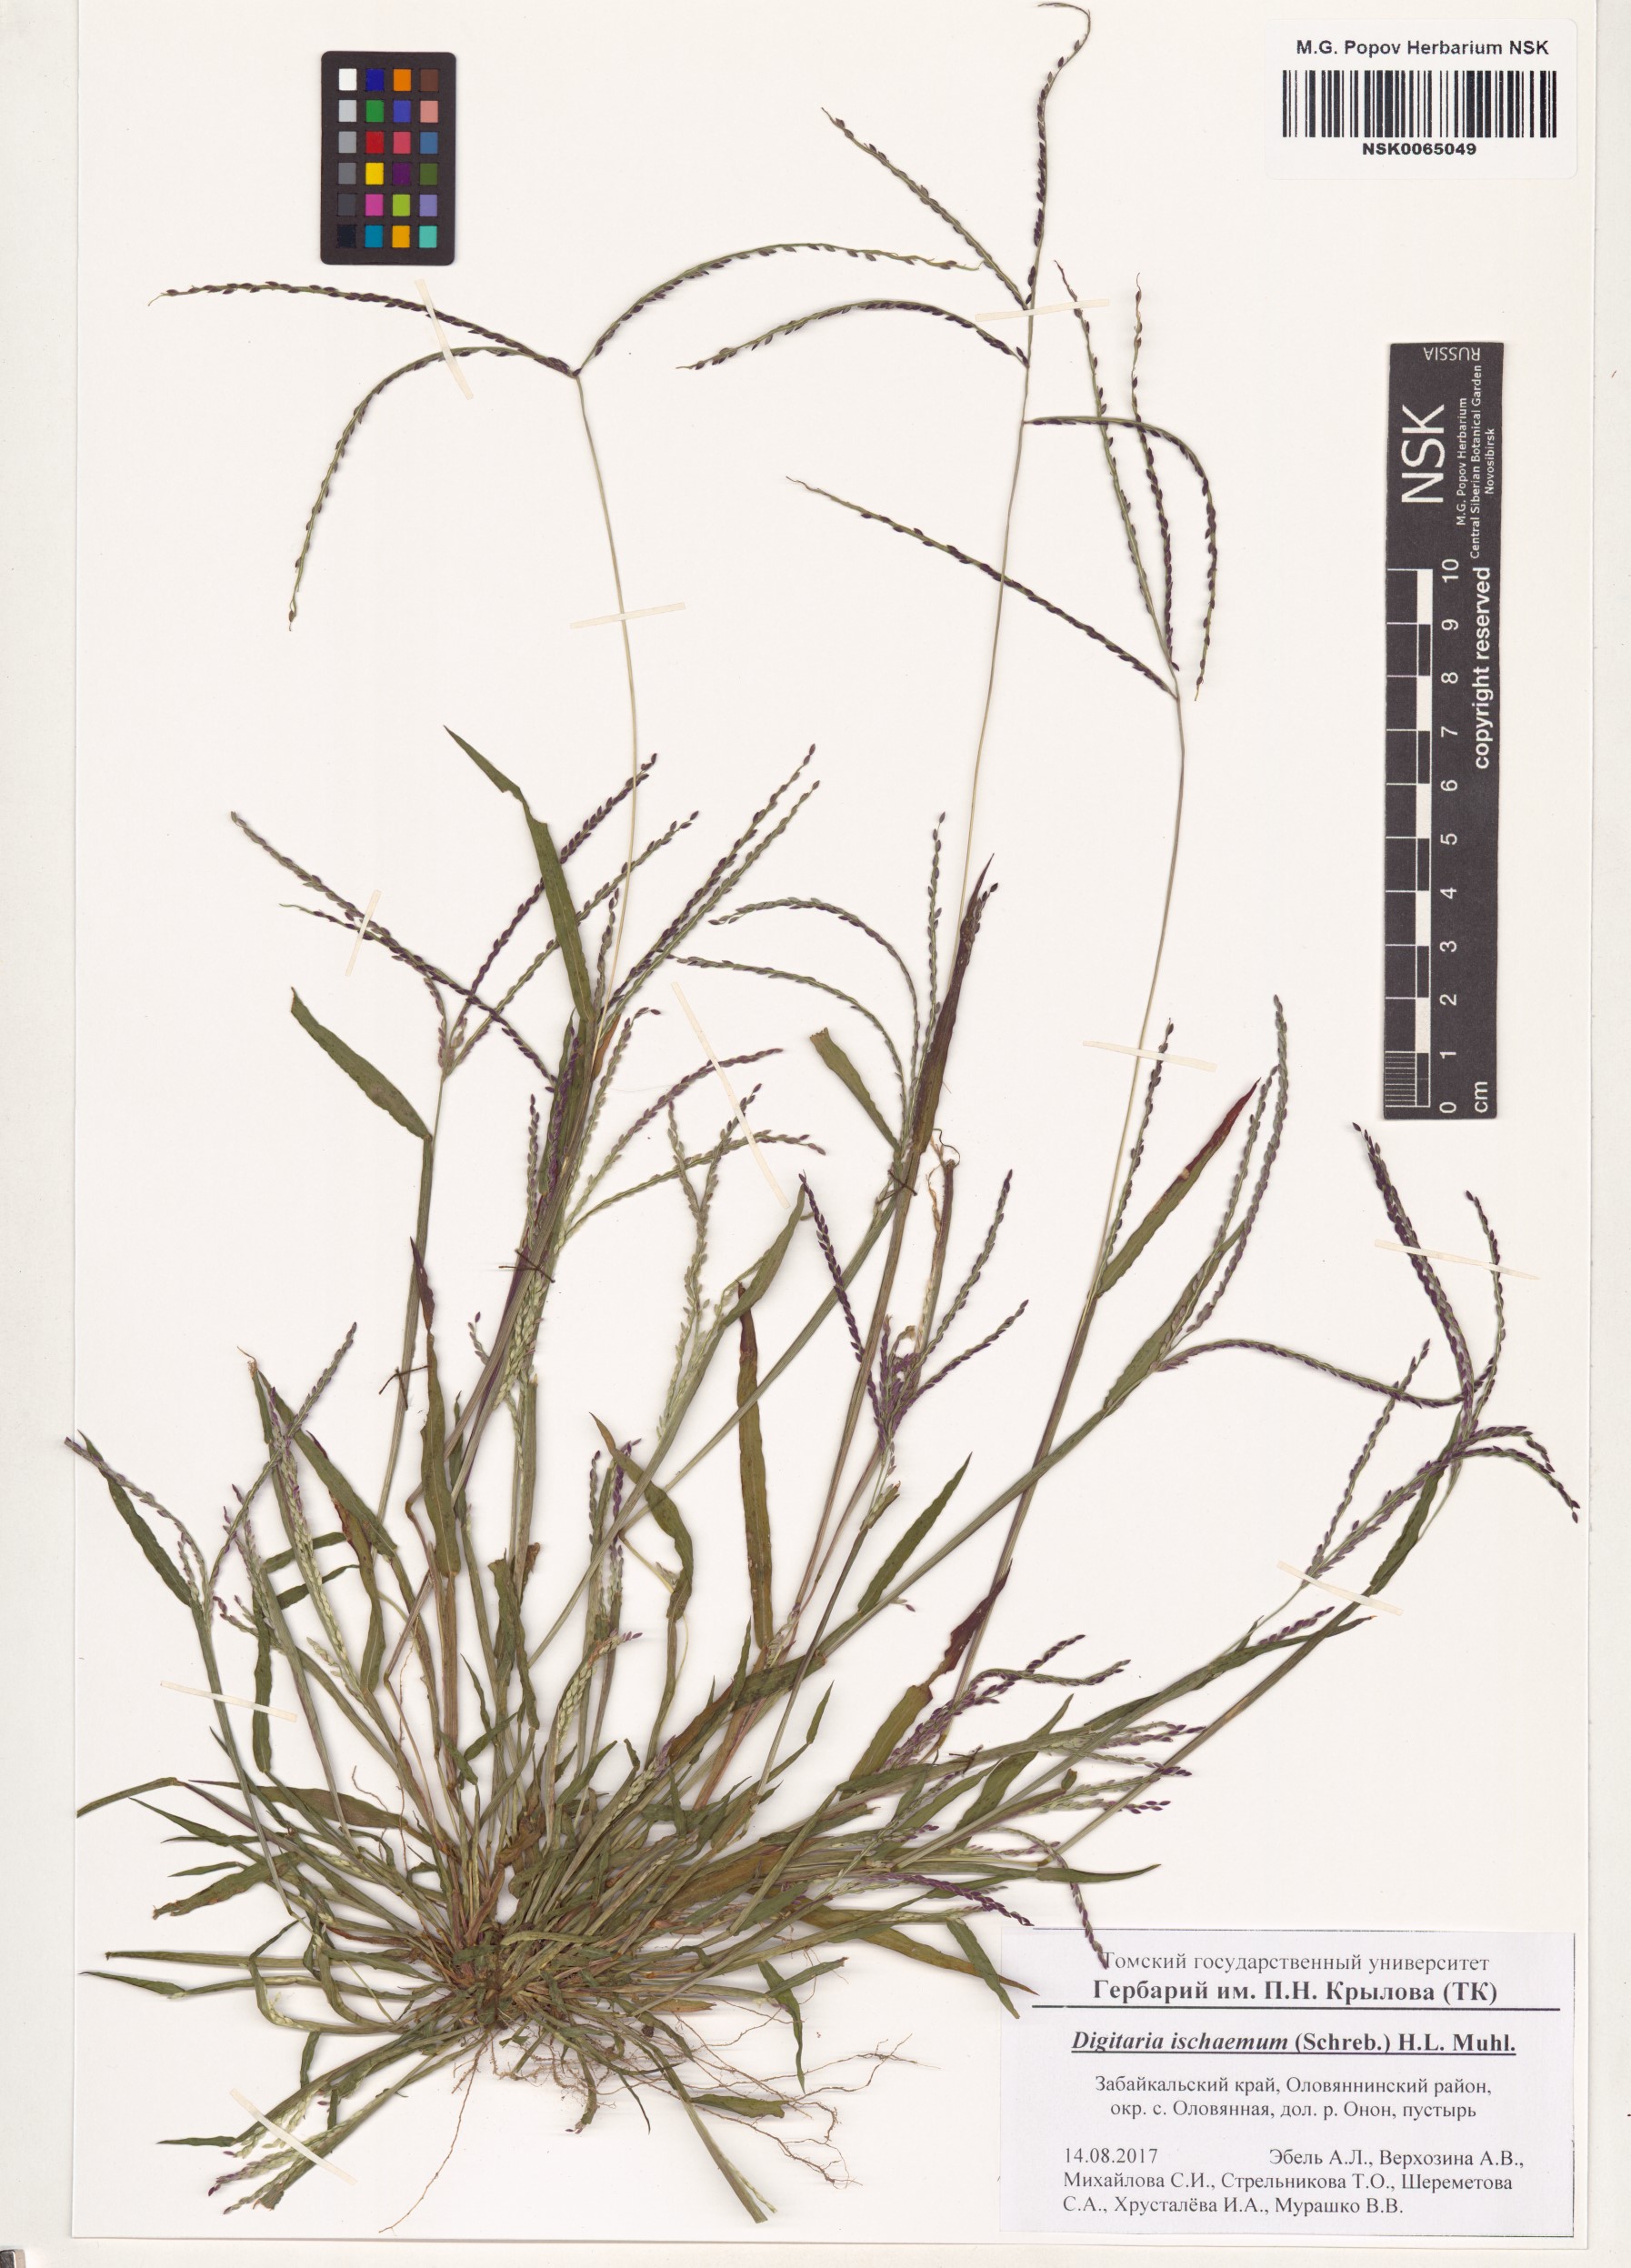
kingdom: Plantae
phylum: Tracheophyta
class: Liliopsida
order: Poales
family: Poaceae
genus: Digitaria
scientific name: Digitaria ischaemum
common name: Smooth crabgrass
